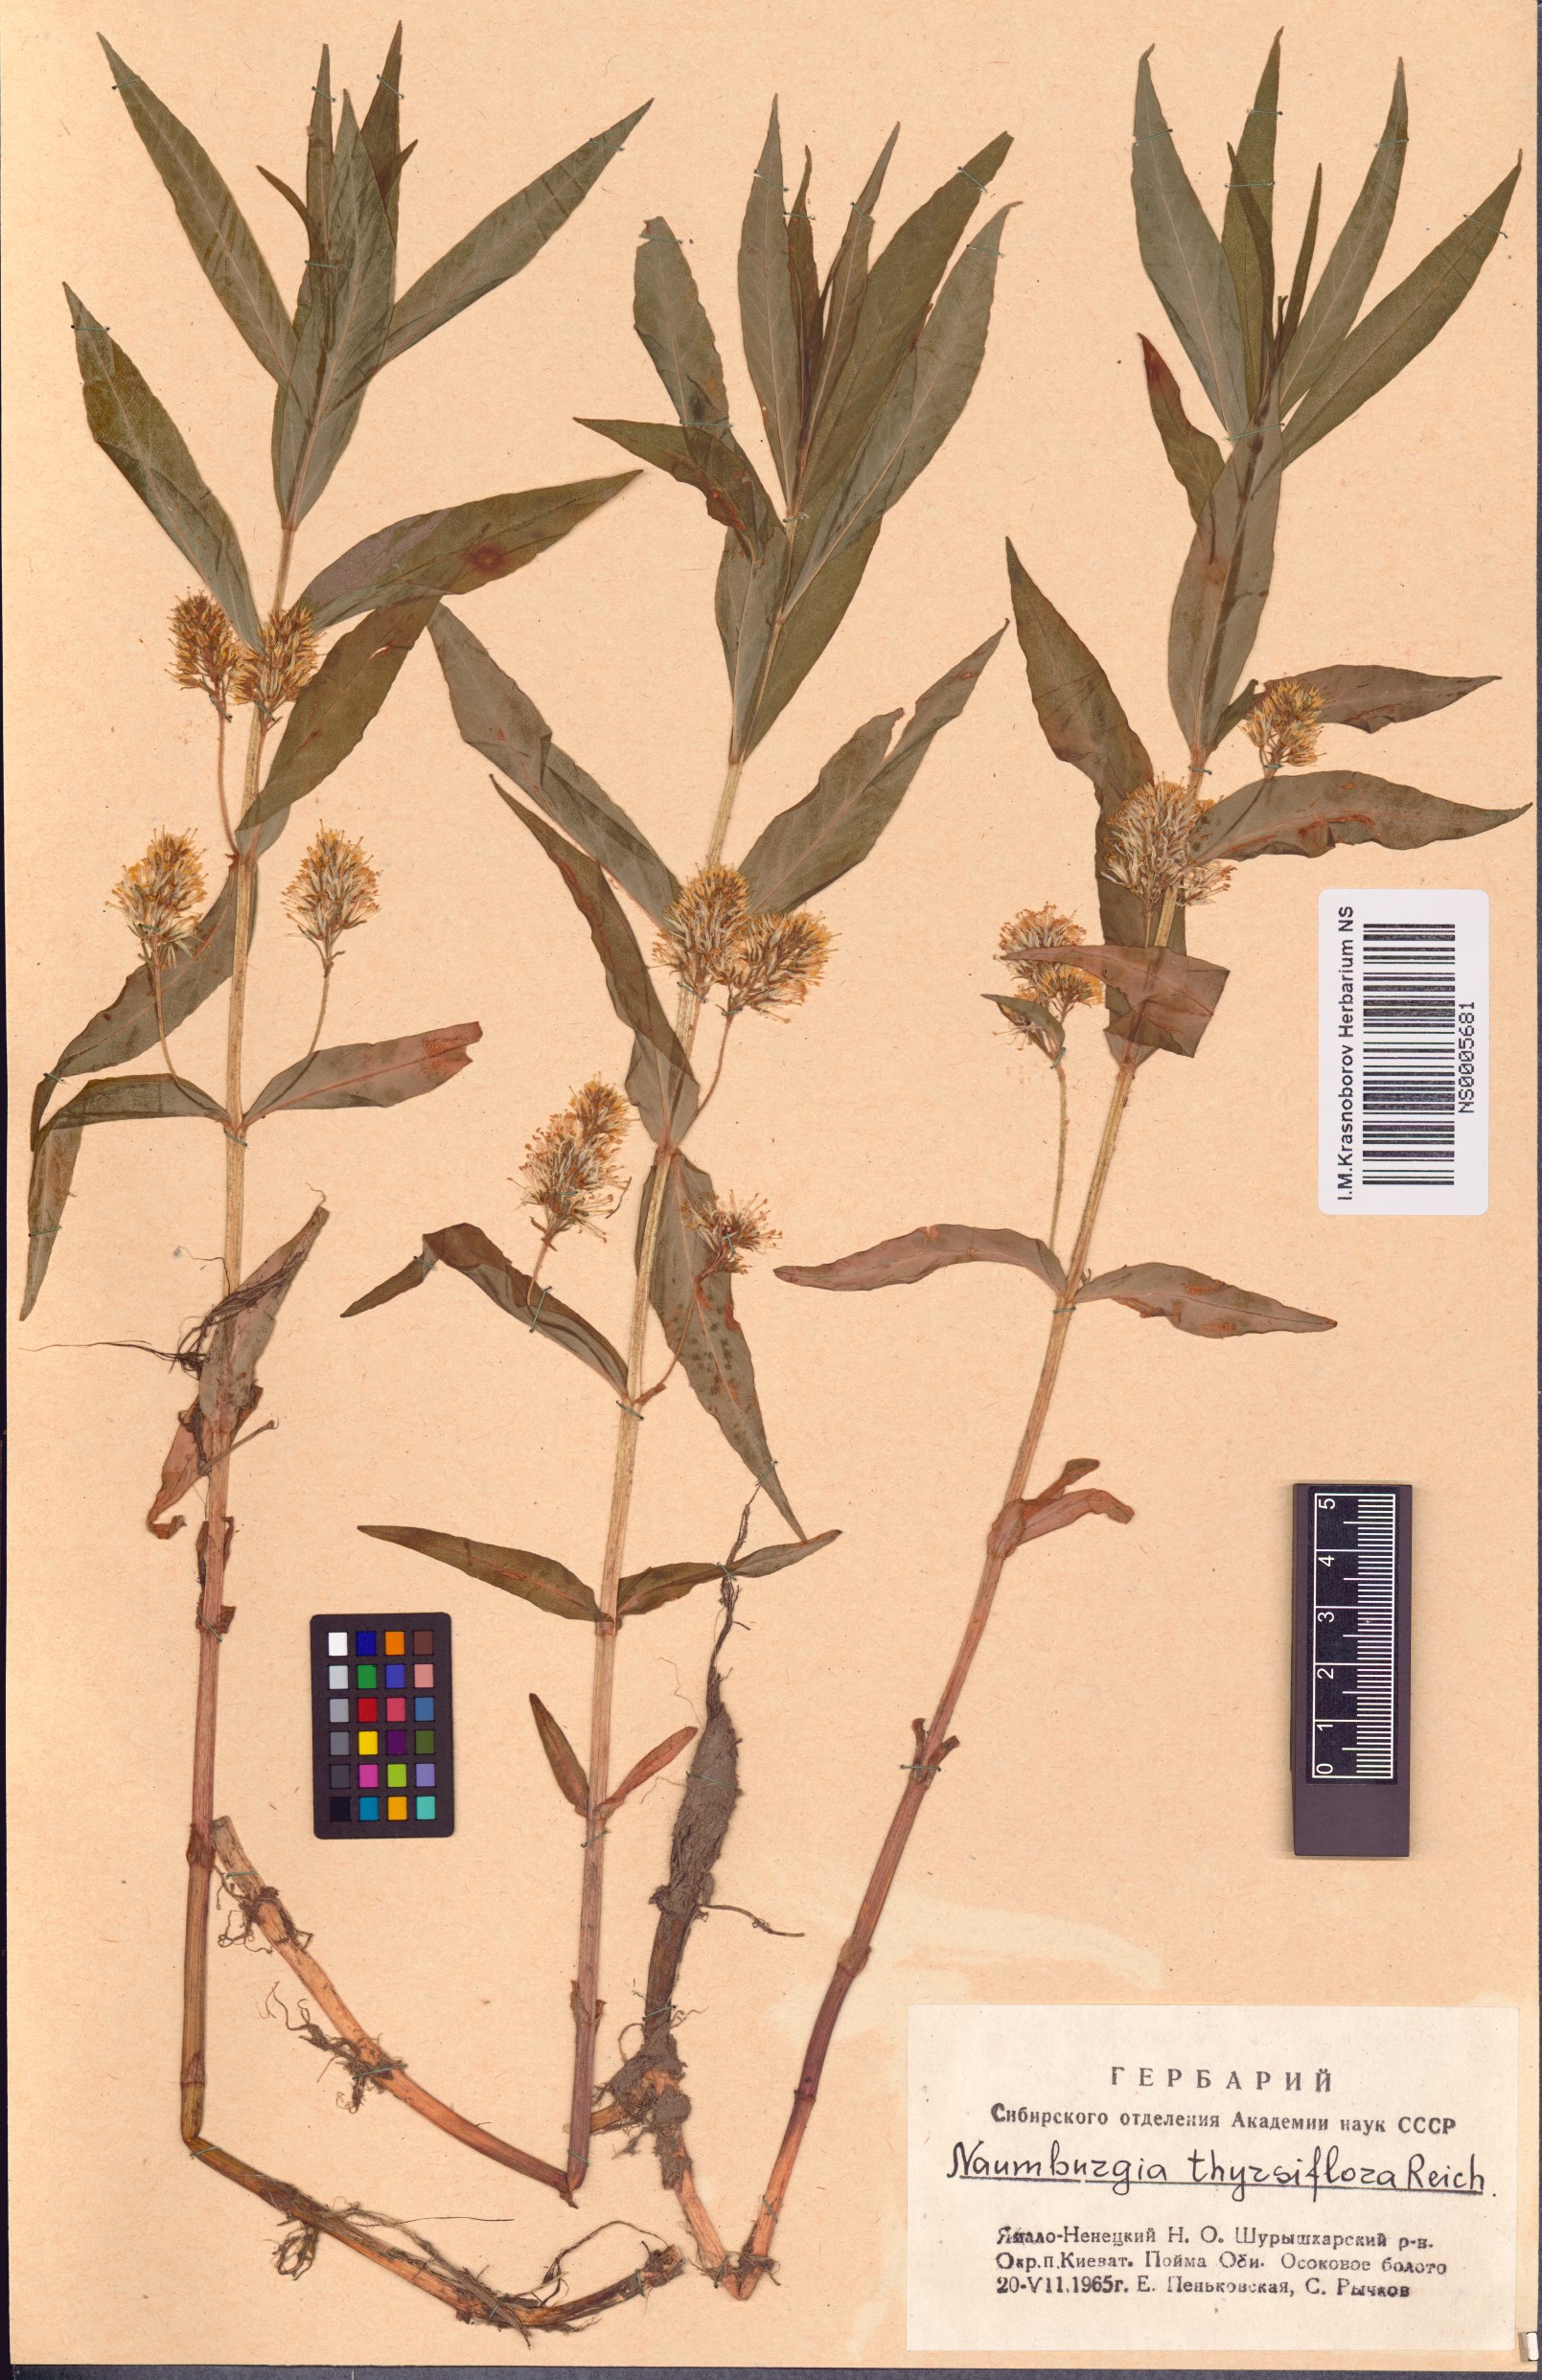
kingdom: Plantae
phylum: Tracheophyta
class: Magnoliopsida
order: Ericales
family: Primulaceae
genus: Lysimachia
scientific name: Lysimachia thyrsiflora
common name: Tufted loosestrife
